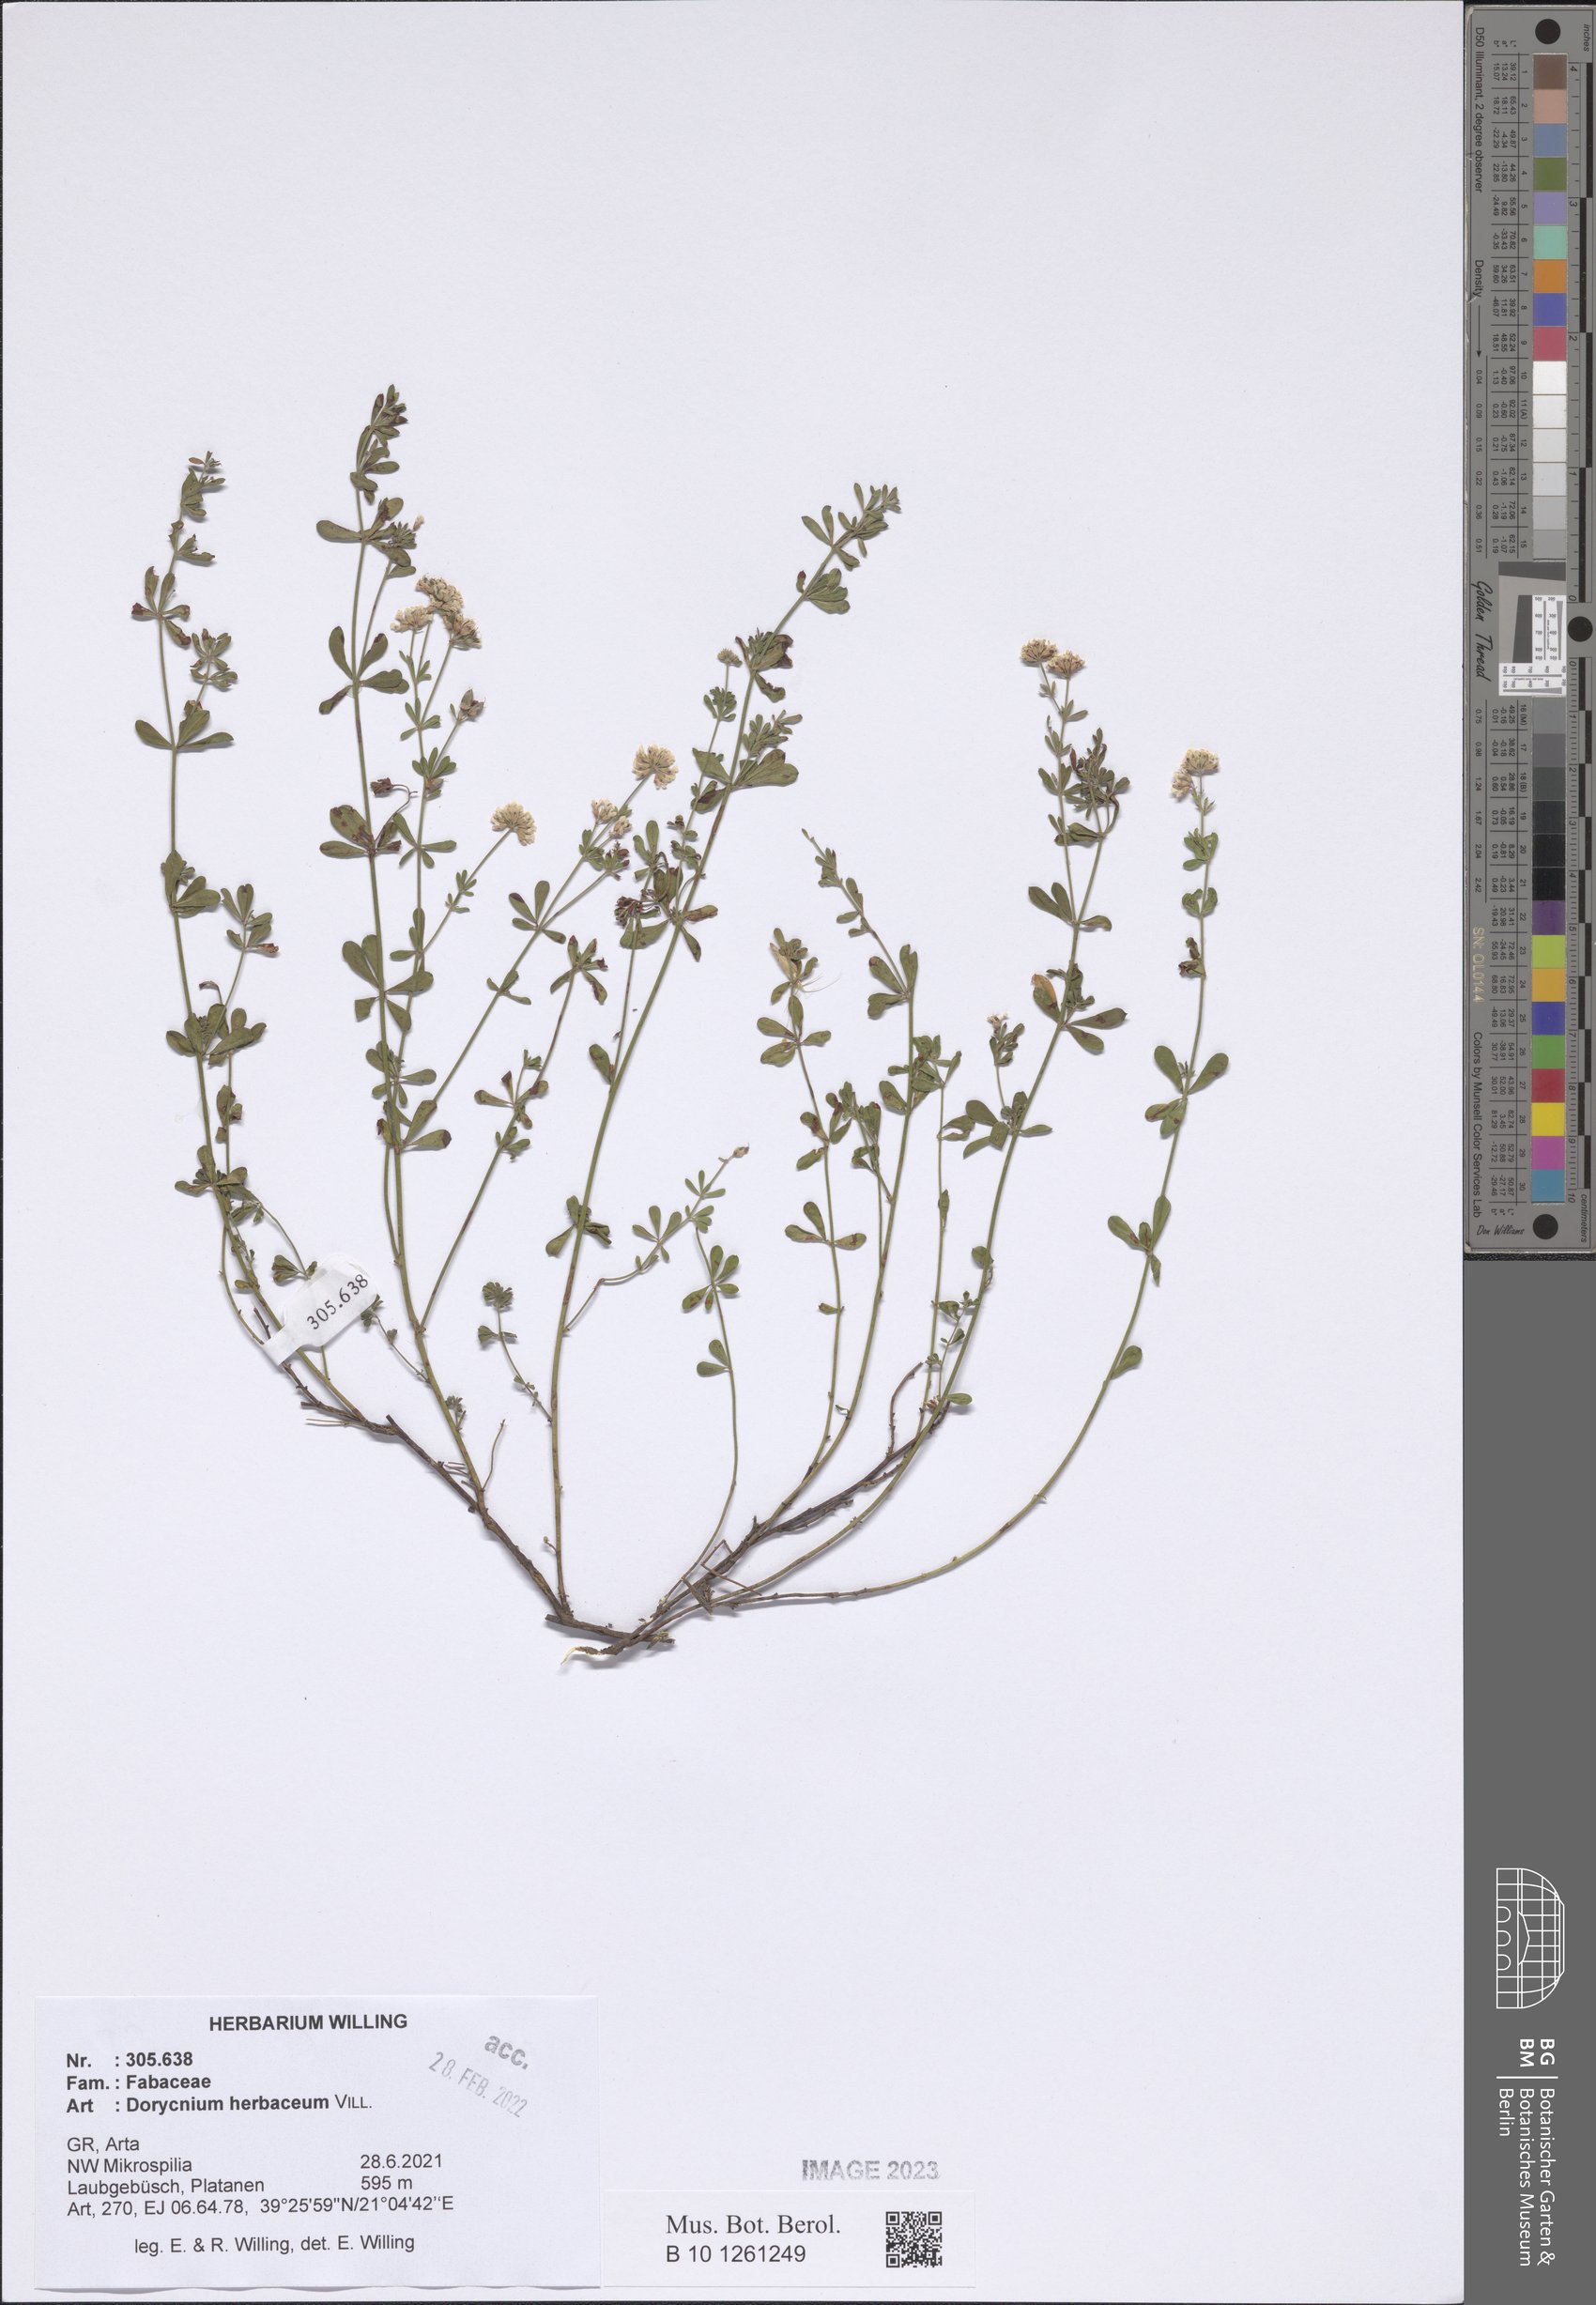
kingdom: Plantae
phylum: Tracheophyta
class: Magnoliopsida
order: Fabales
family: Fabaceae
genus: Lotus
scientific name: Lotus herbaceus
